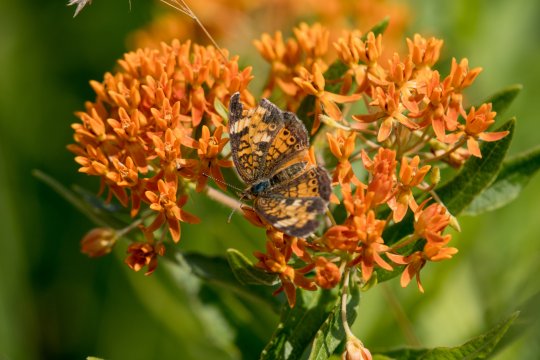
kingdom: Animalia
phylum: Arthropoda
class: Insecta
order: Lepidoptera
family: Nymphalidae
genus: Phyciodes
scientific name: Phyciodes tharos
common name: Pearl Crescent
